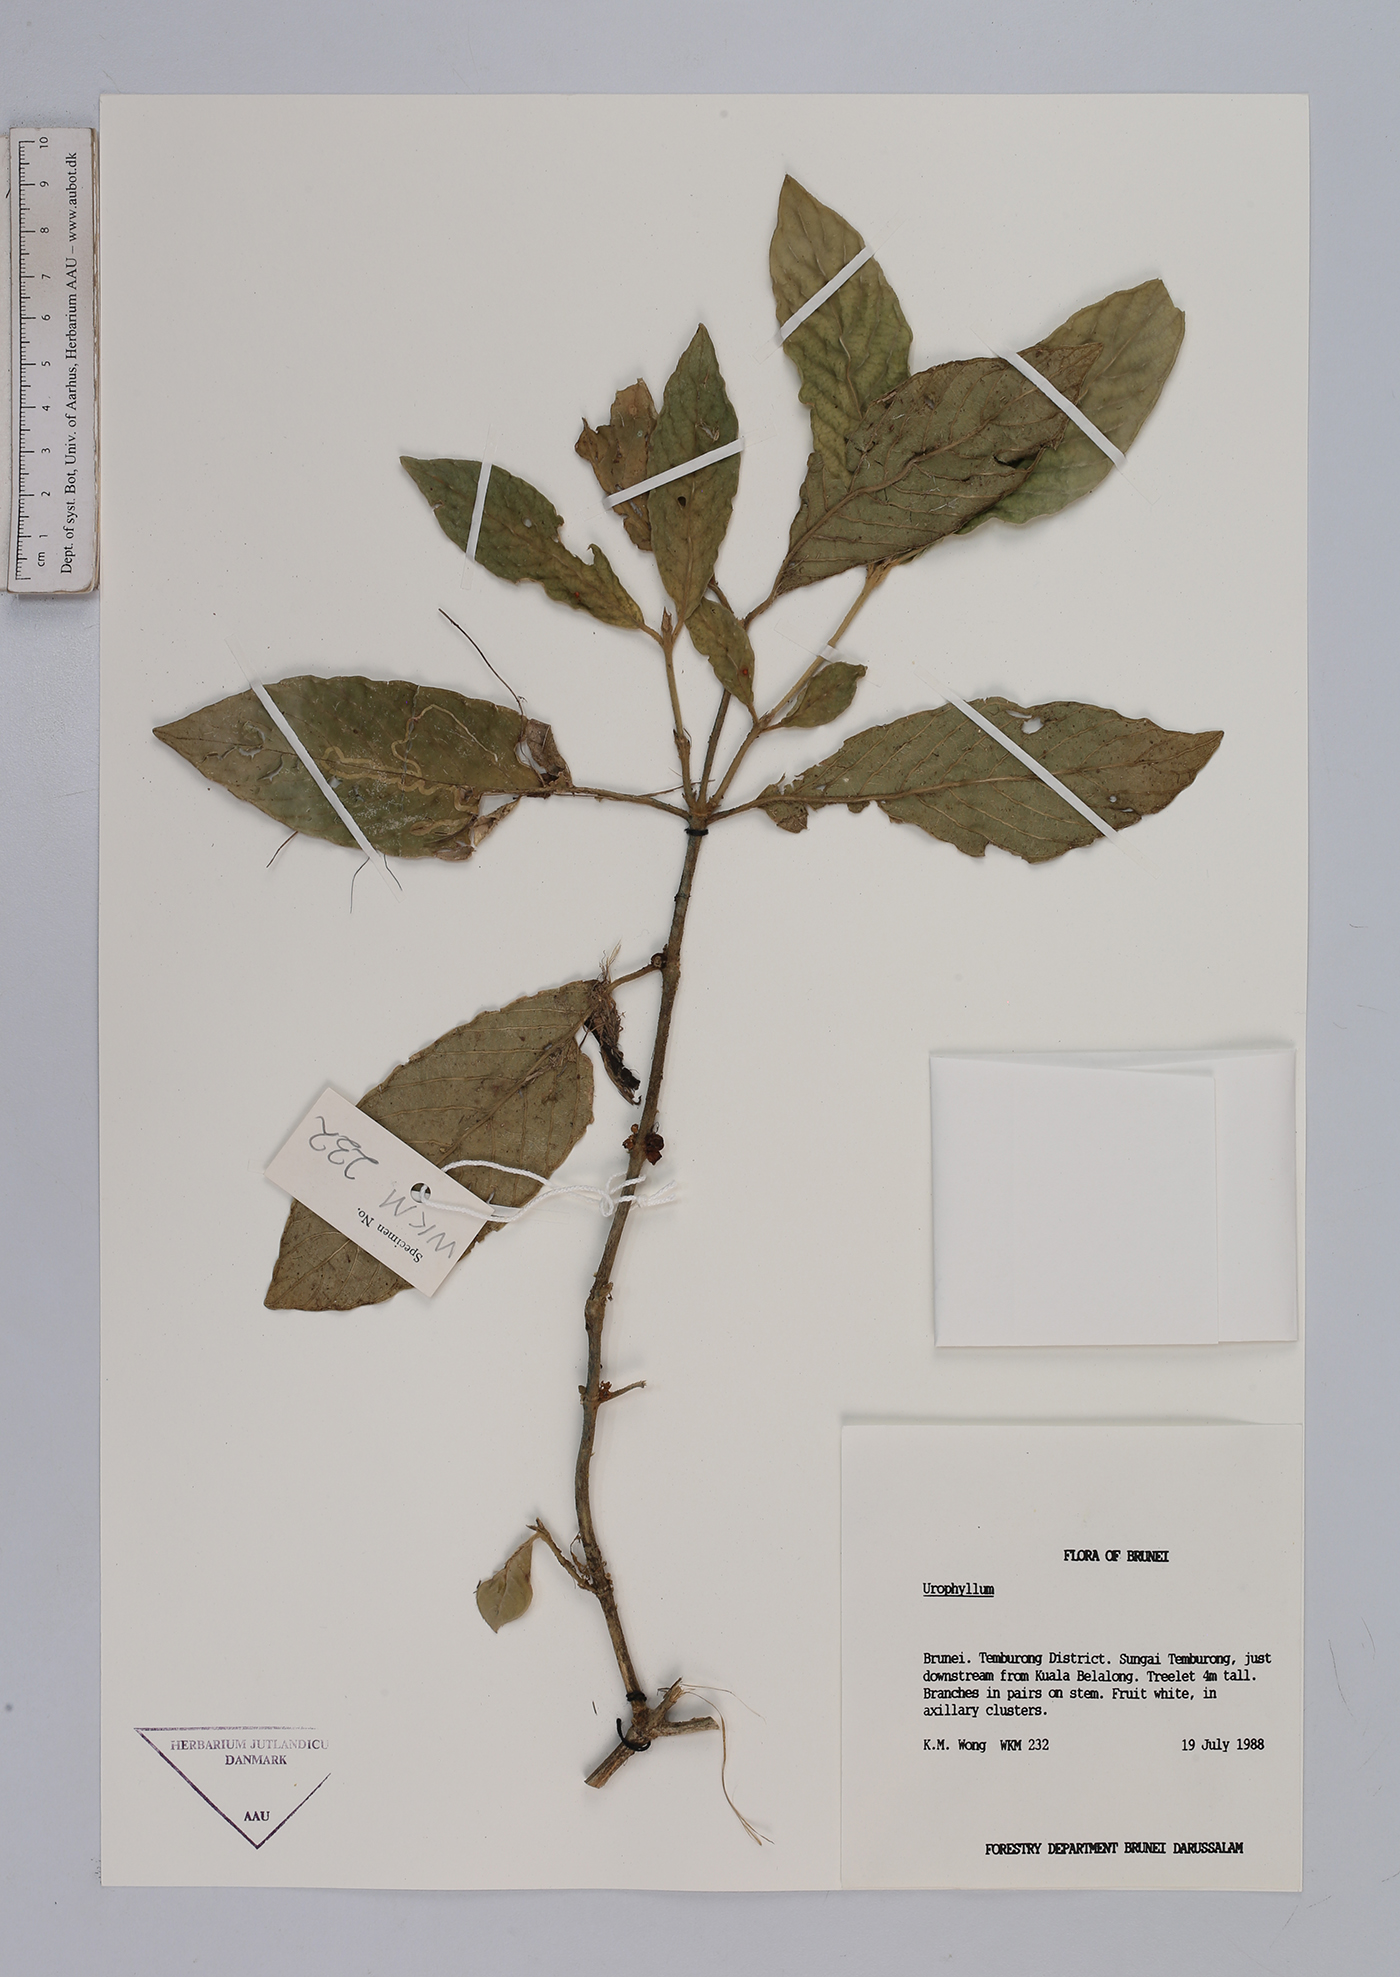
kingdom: Plantae
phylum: Tracheophyta
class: Magnoliopsida
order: Gentianales
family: Rubiaceae
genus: Urophyllum
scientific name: Urophyllum
